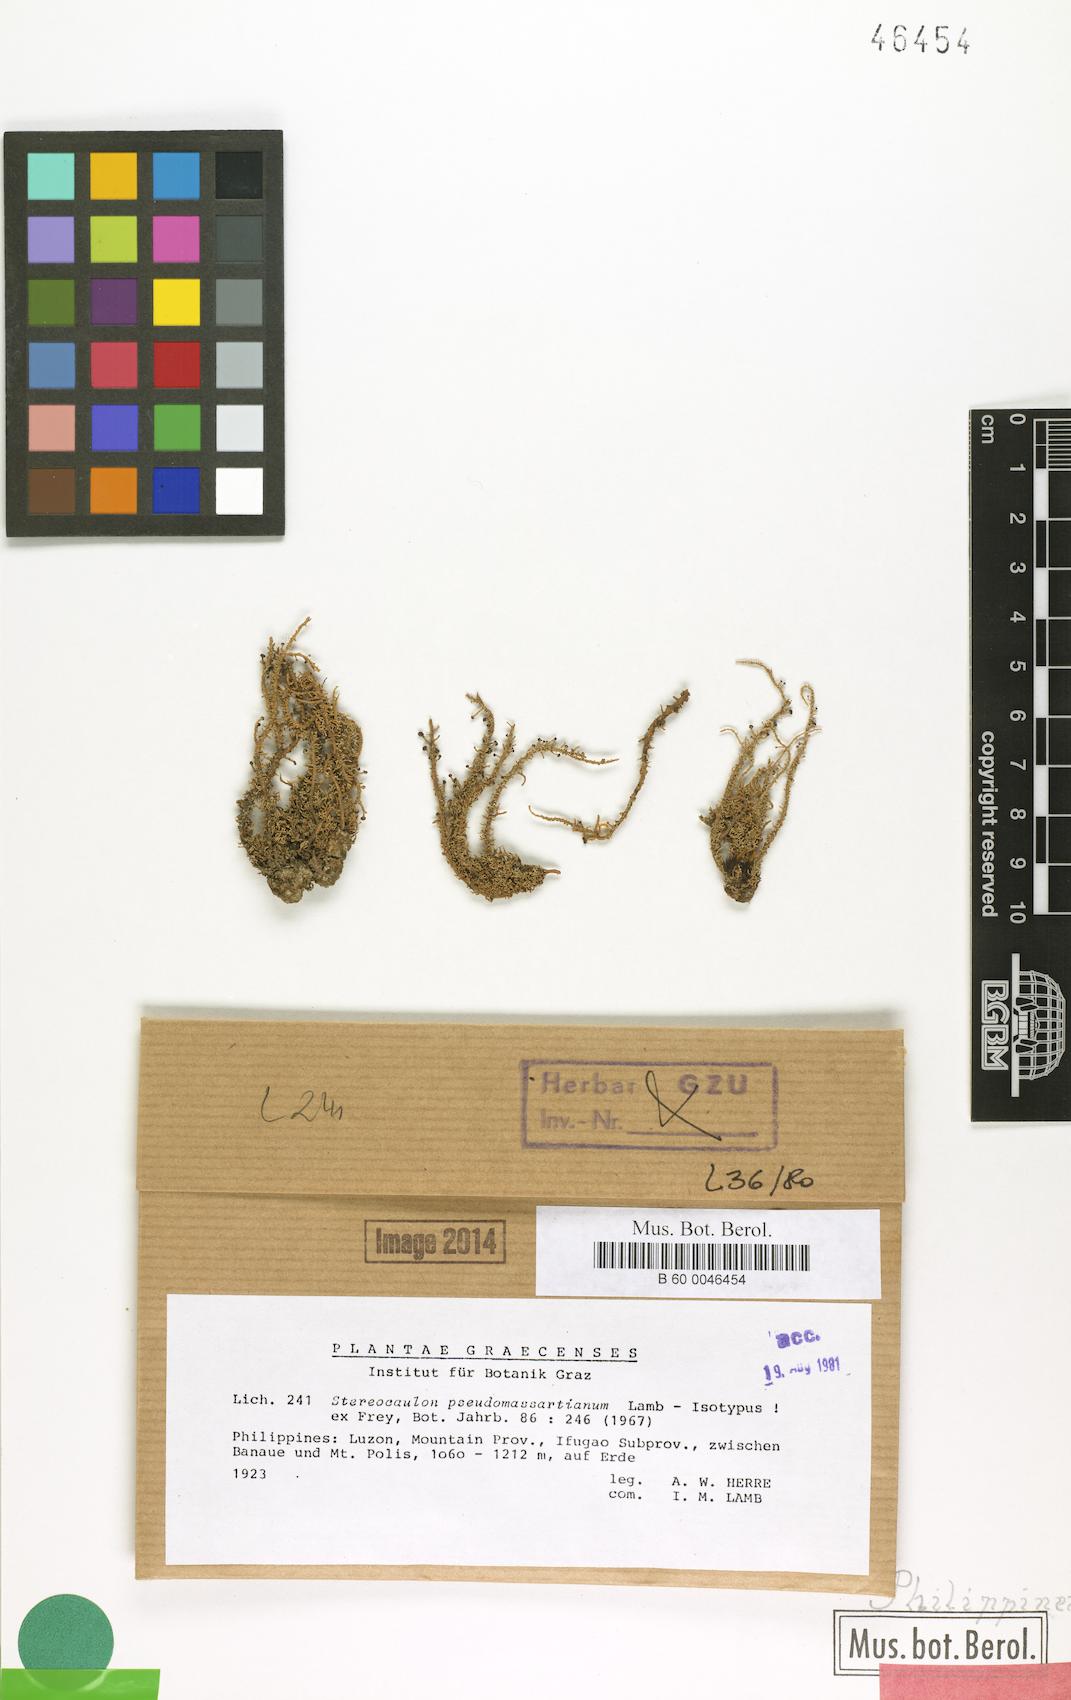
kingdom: Fungi
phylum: Ascomycota
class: Lecanoromycetes
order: Lecanorales
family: Stereocaulaceae
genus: Stereocaulon
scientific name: Stereocaulon pseudomassartianum
